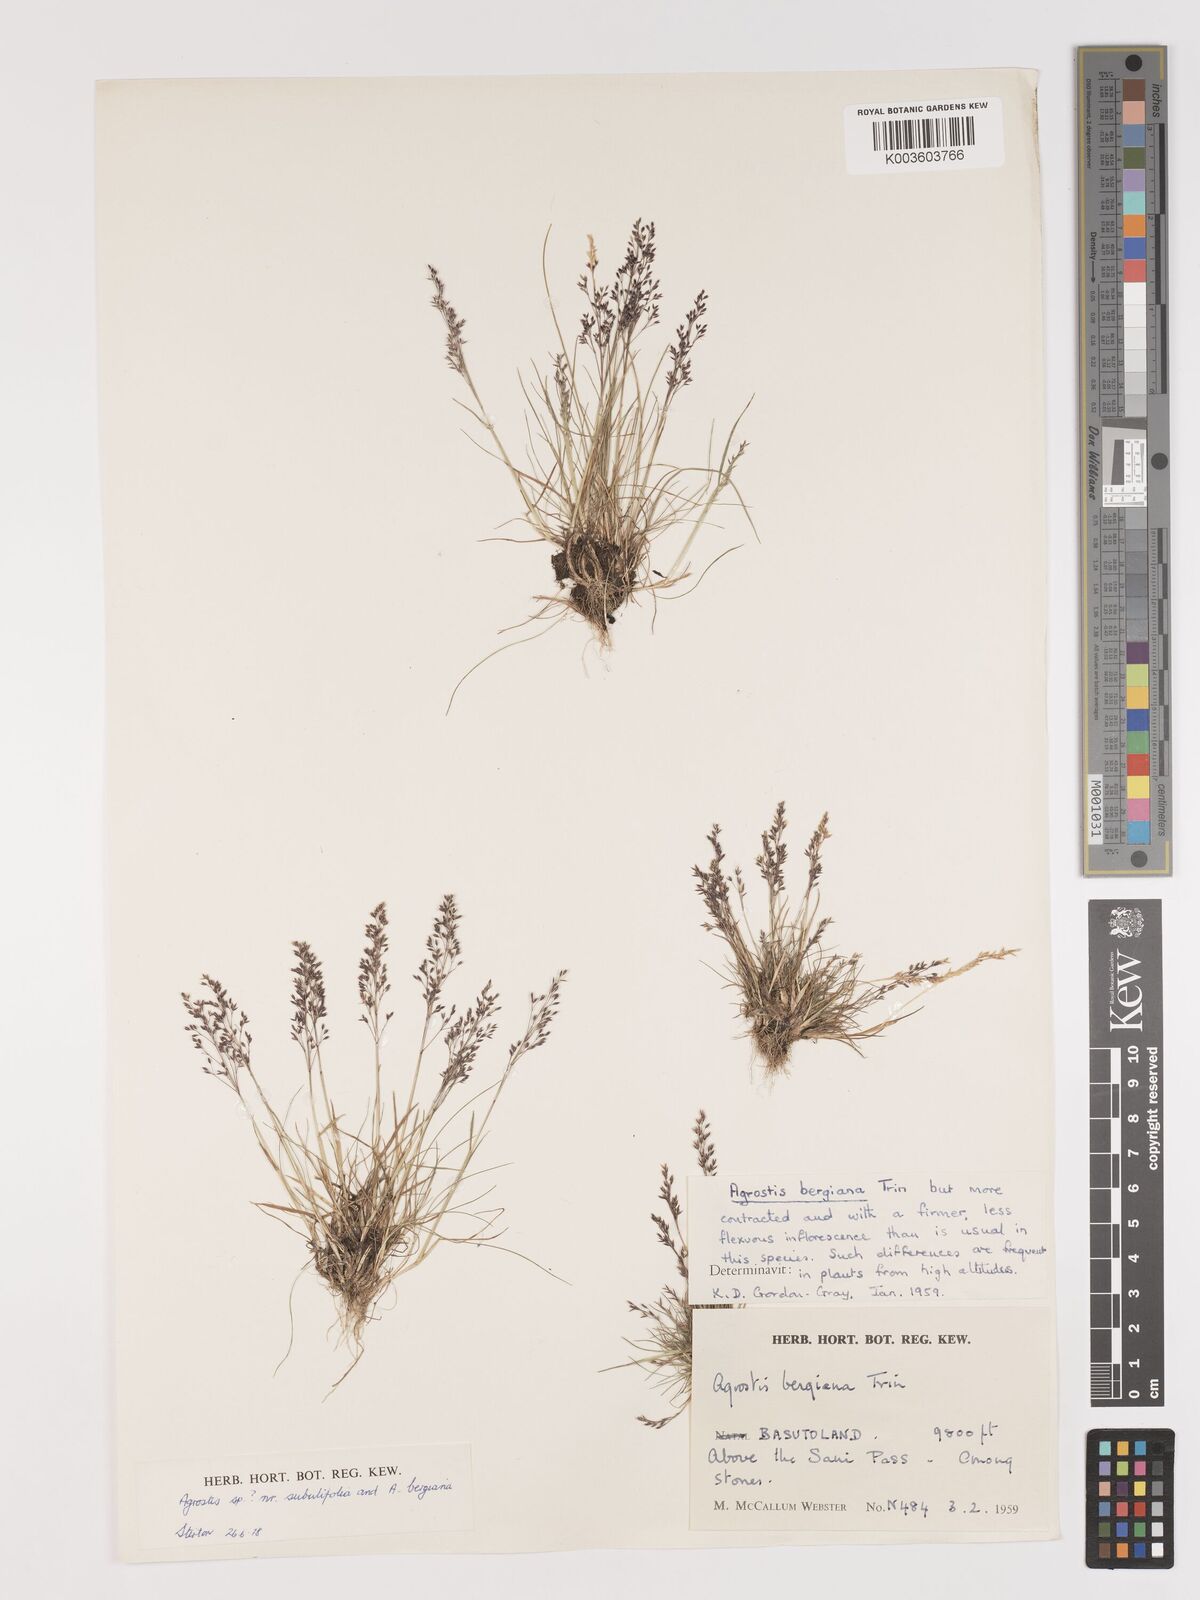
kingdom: Plantae
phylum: Tracheophyta
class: Liliopsida
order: Poales
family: Poaceae
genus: Agrostis
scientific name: Agrostis subulifolia
